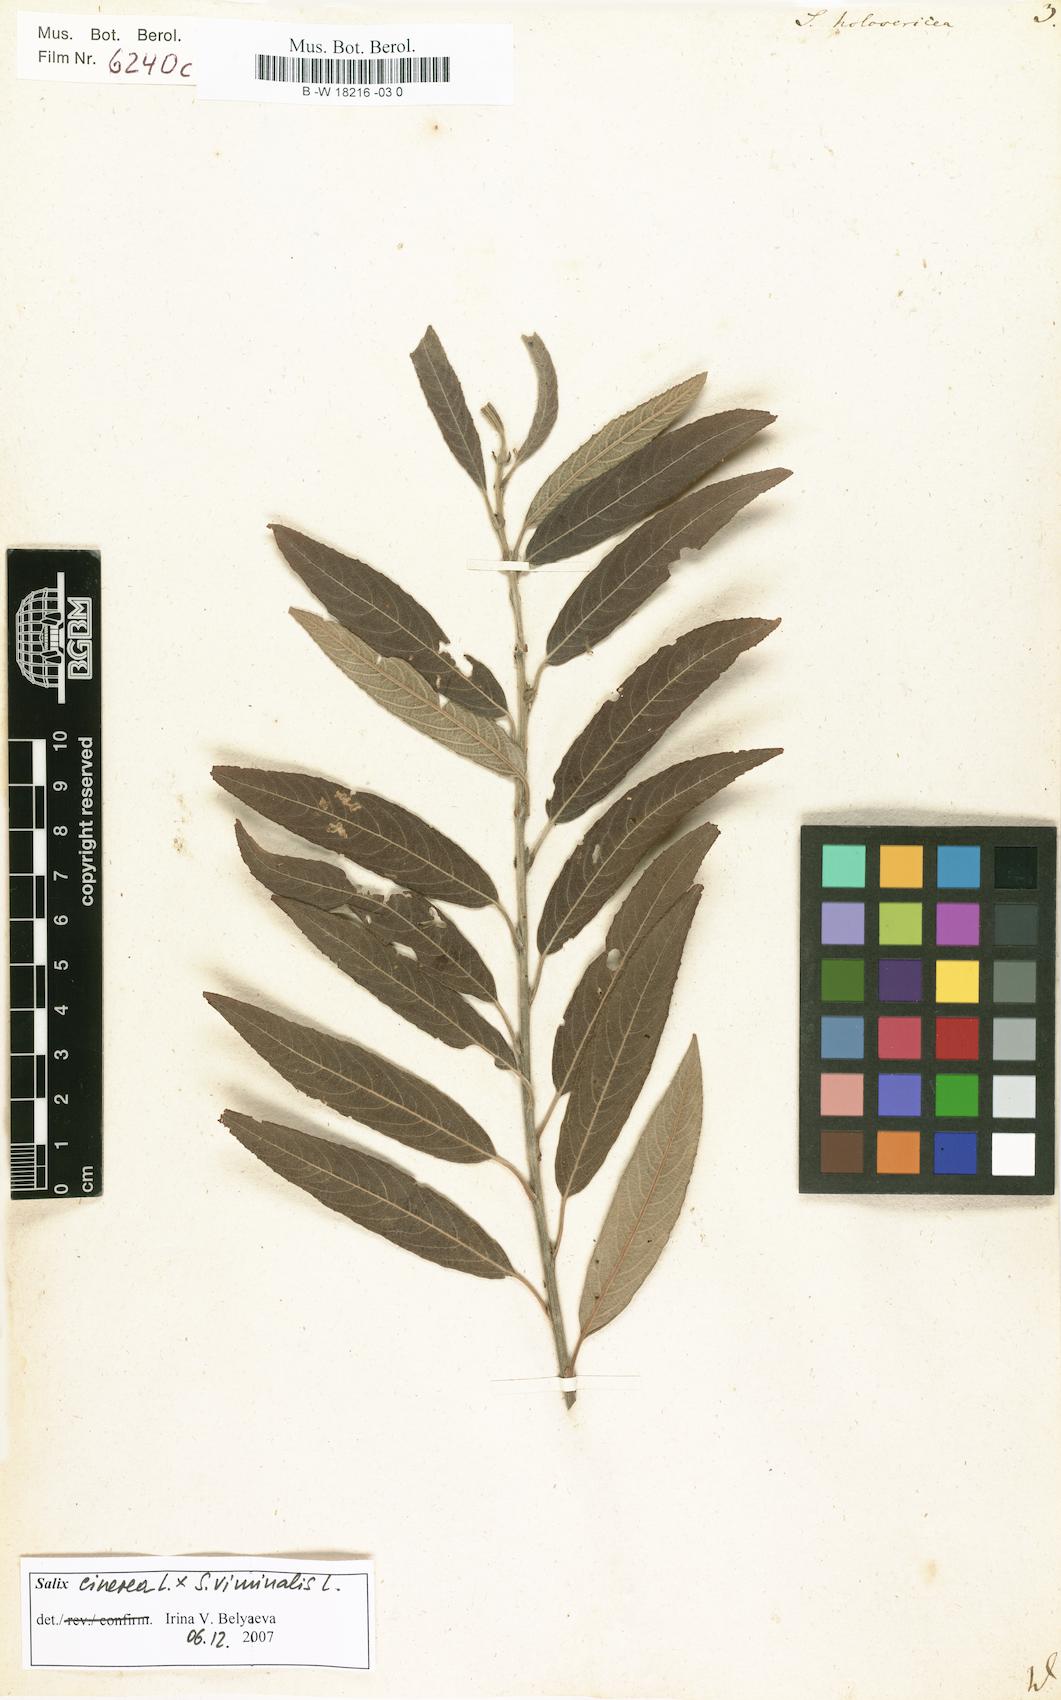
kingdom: Plantae
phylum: Tracheophyta
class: Magnoliopsida
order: Malpighiales
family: Salicaceae
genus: Salix
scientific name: Salix holosericea
